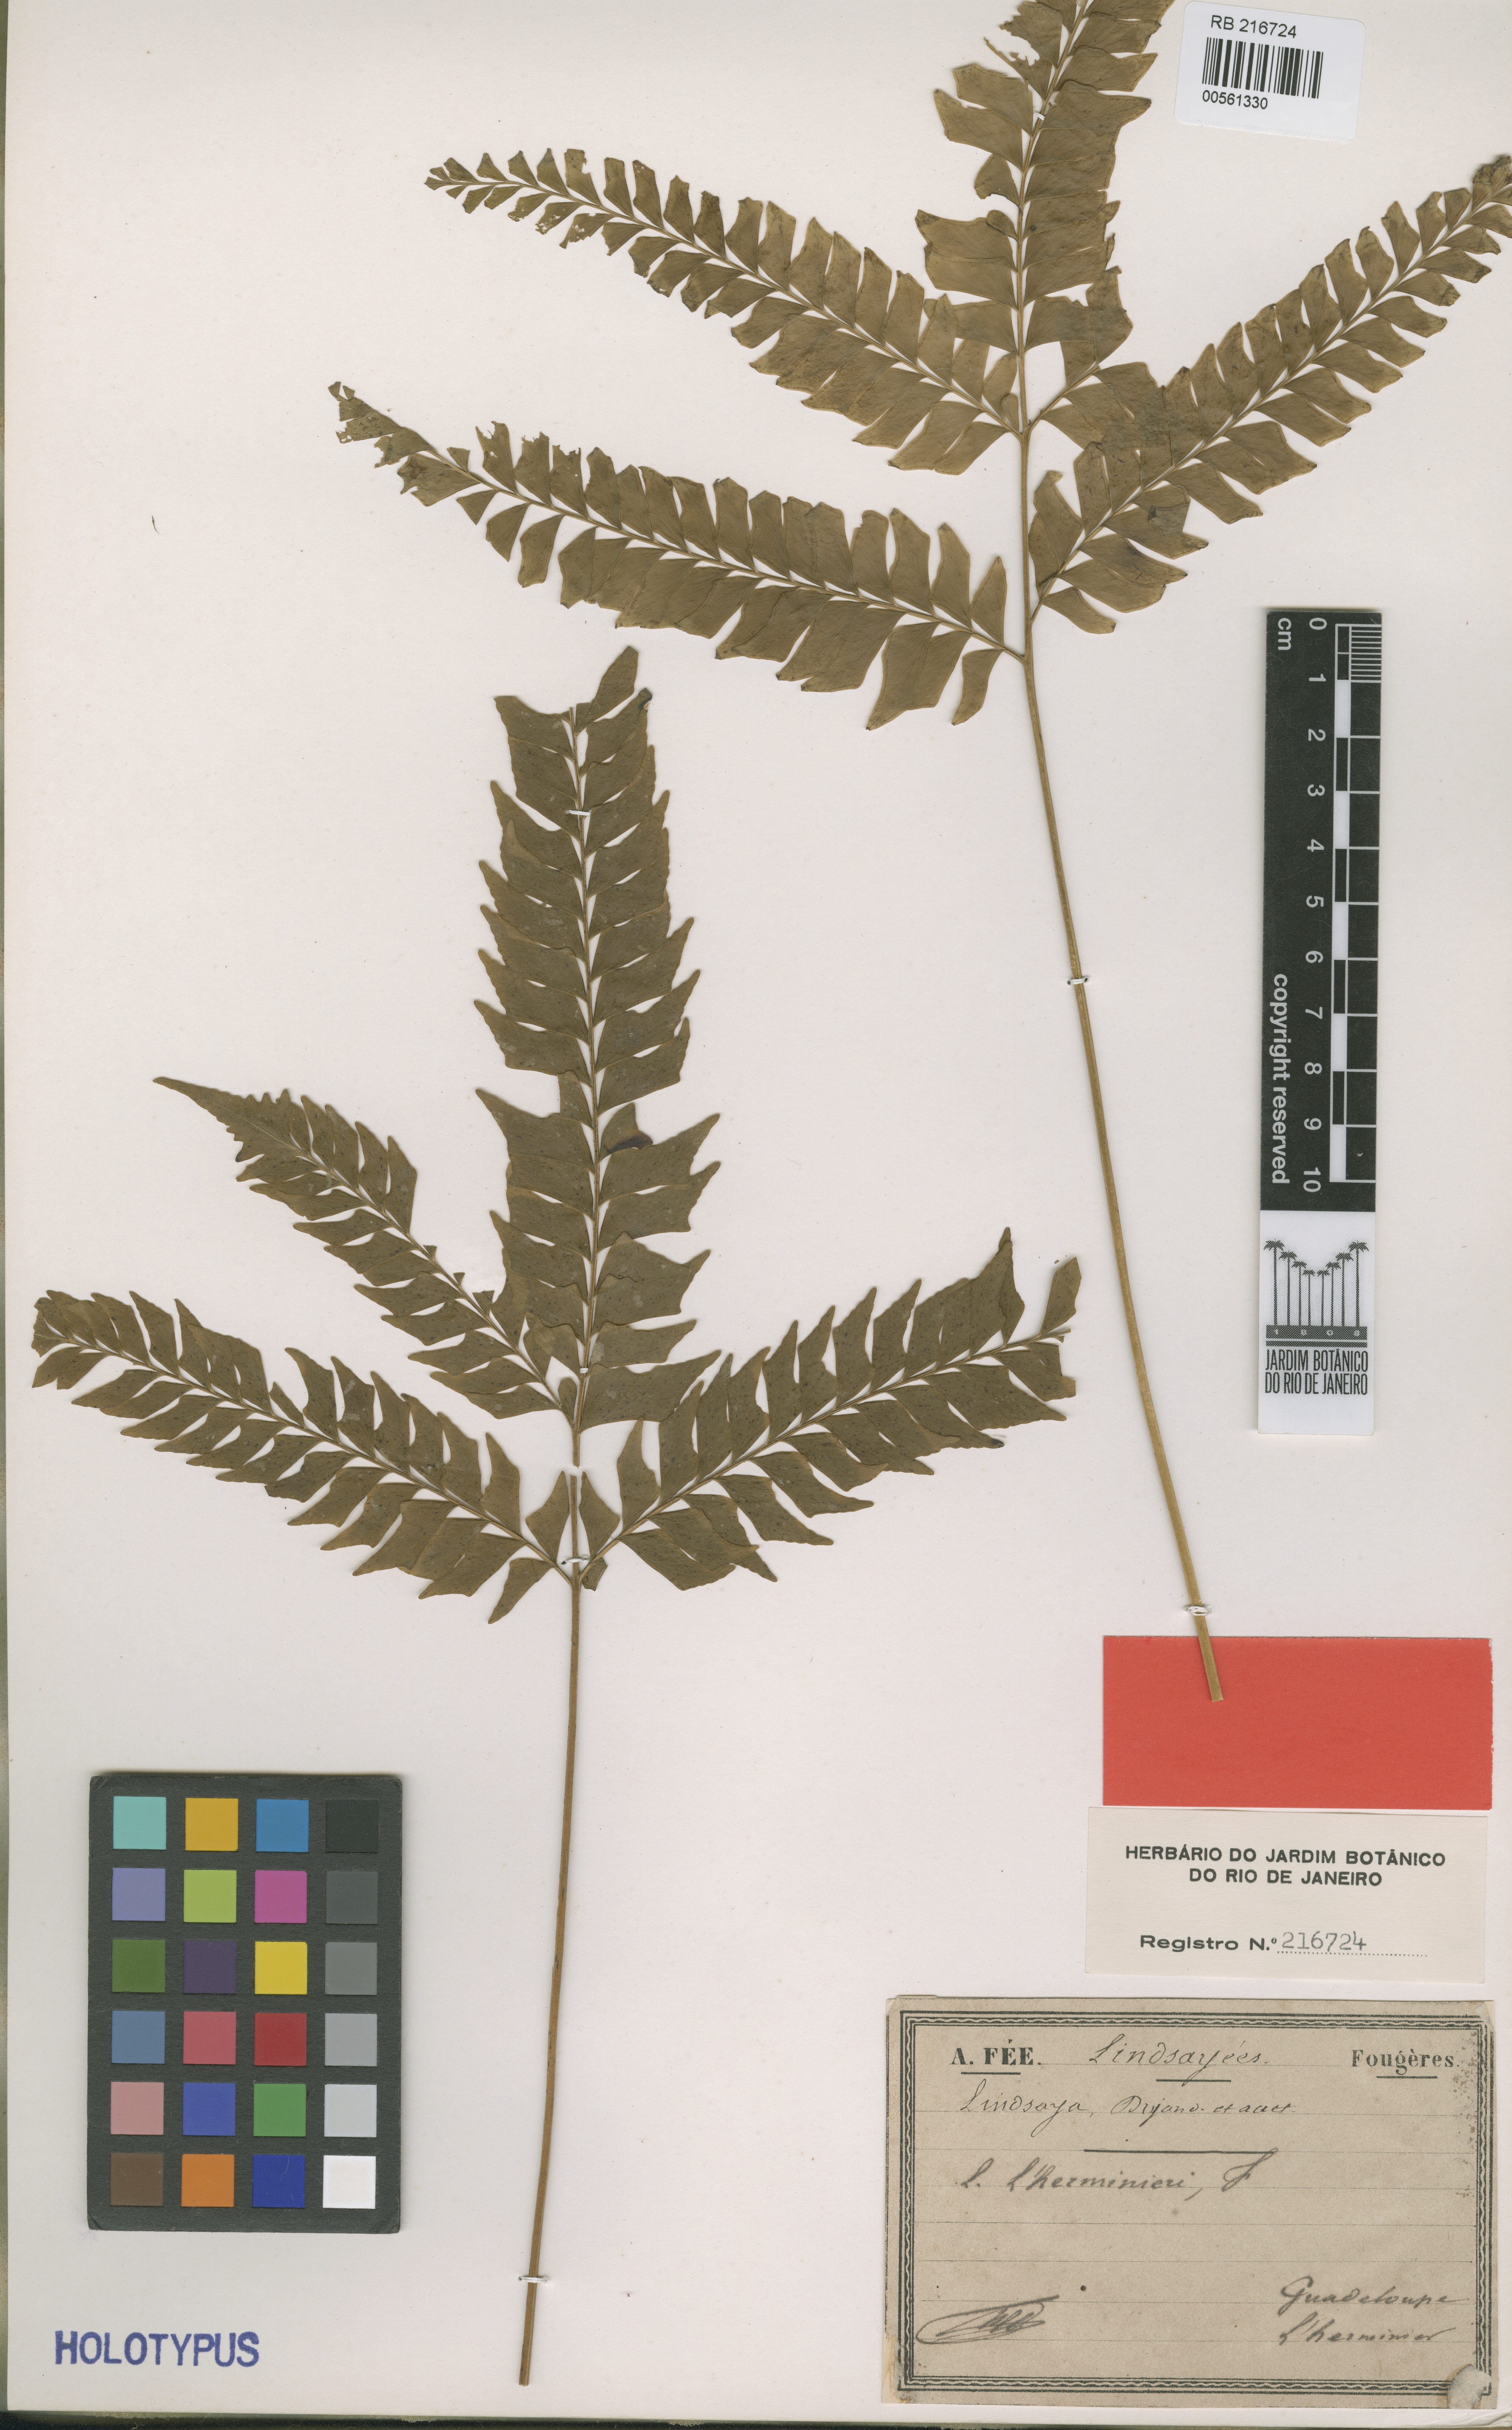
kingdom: Plantae
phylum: Tracheophyta
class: Polypodiopsida
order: Polypodiales
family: Lindsaeaceae
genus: Lindsaea
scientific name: Lindsaea lherminieri
